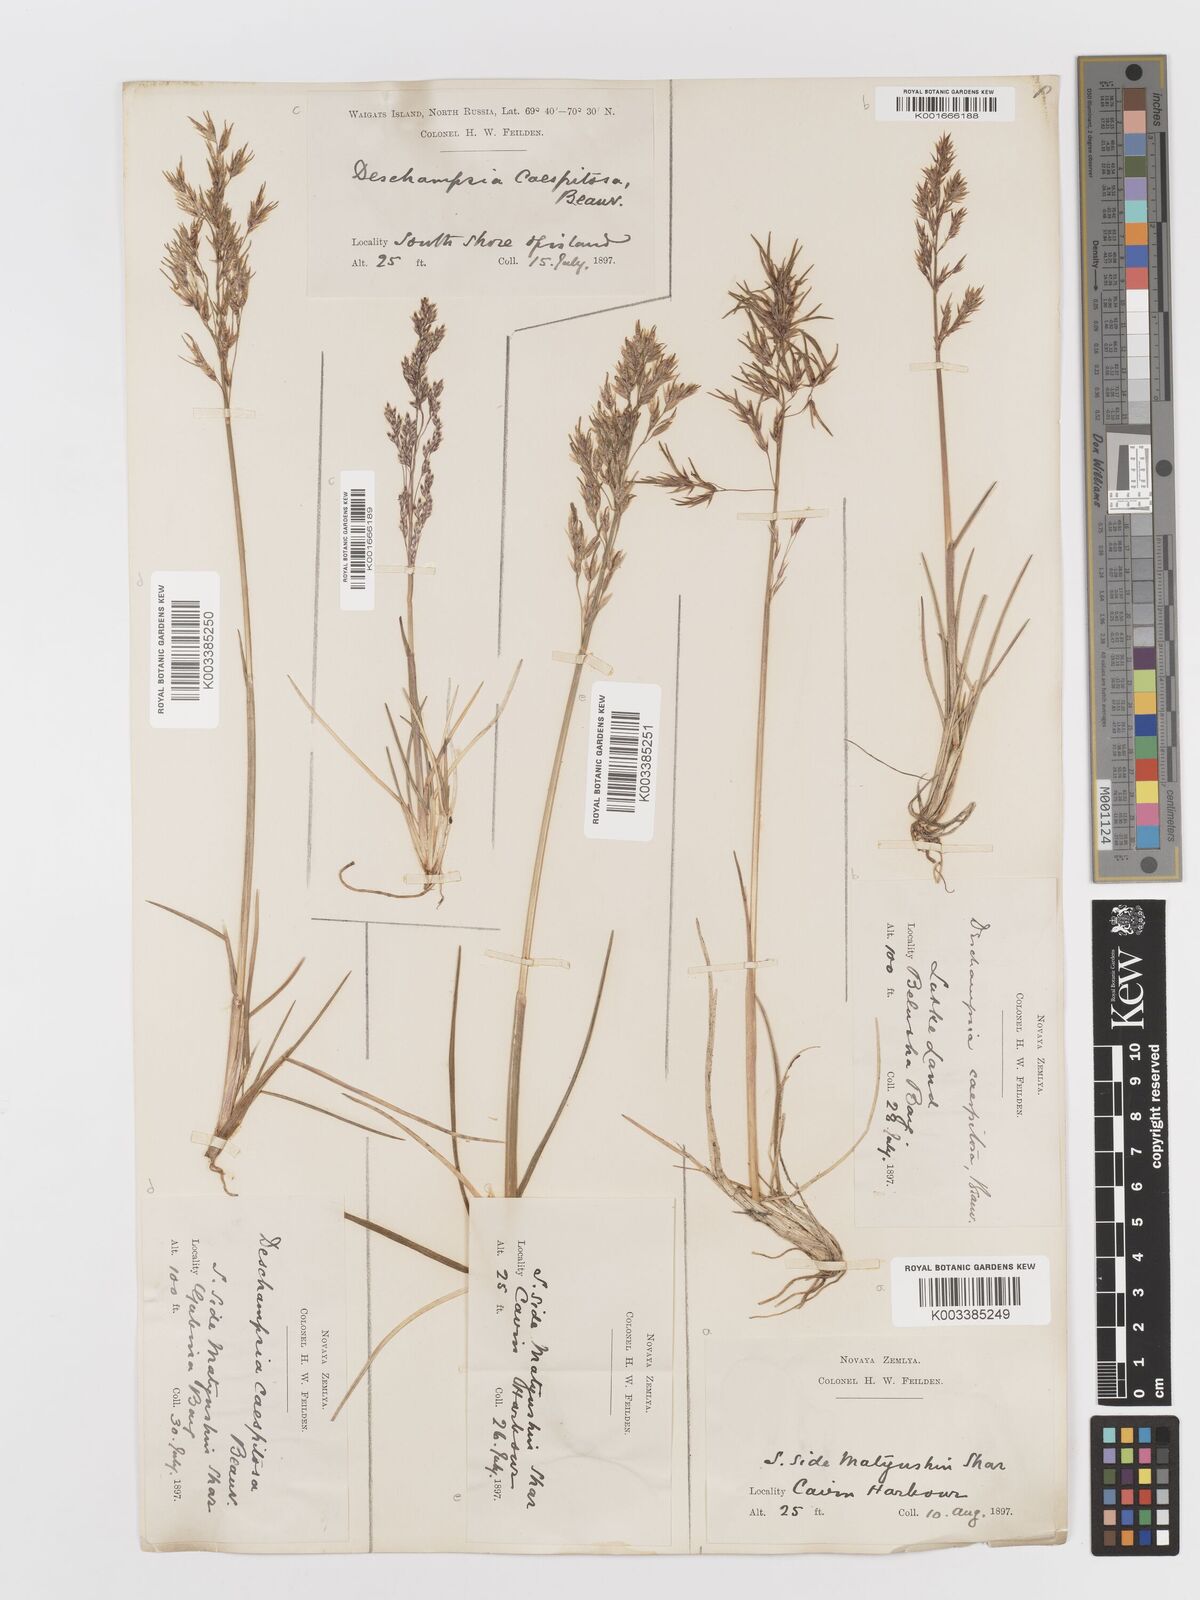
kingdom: Plantae
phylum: Tracheophyta
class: Liliopsida
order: Poales
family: Poaceae
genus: Deschampsia
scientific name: Deschampsia cespitosa
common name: Tufted hair-grass
